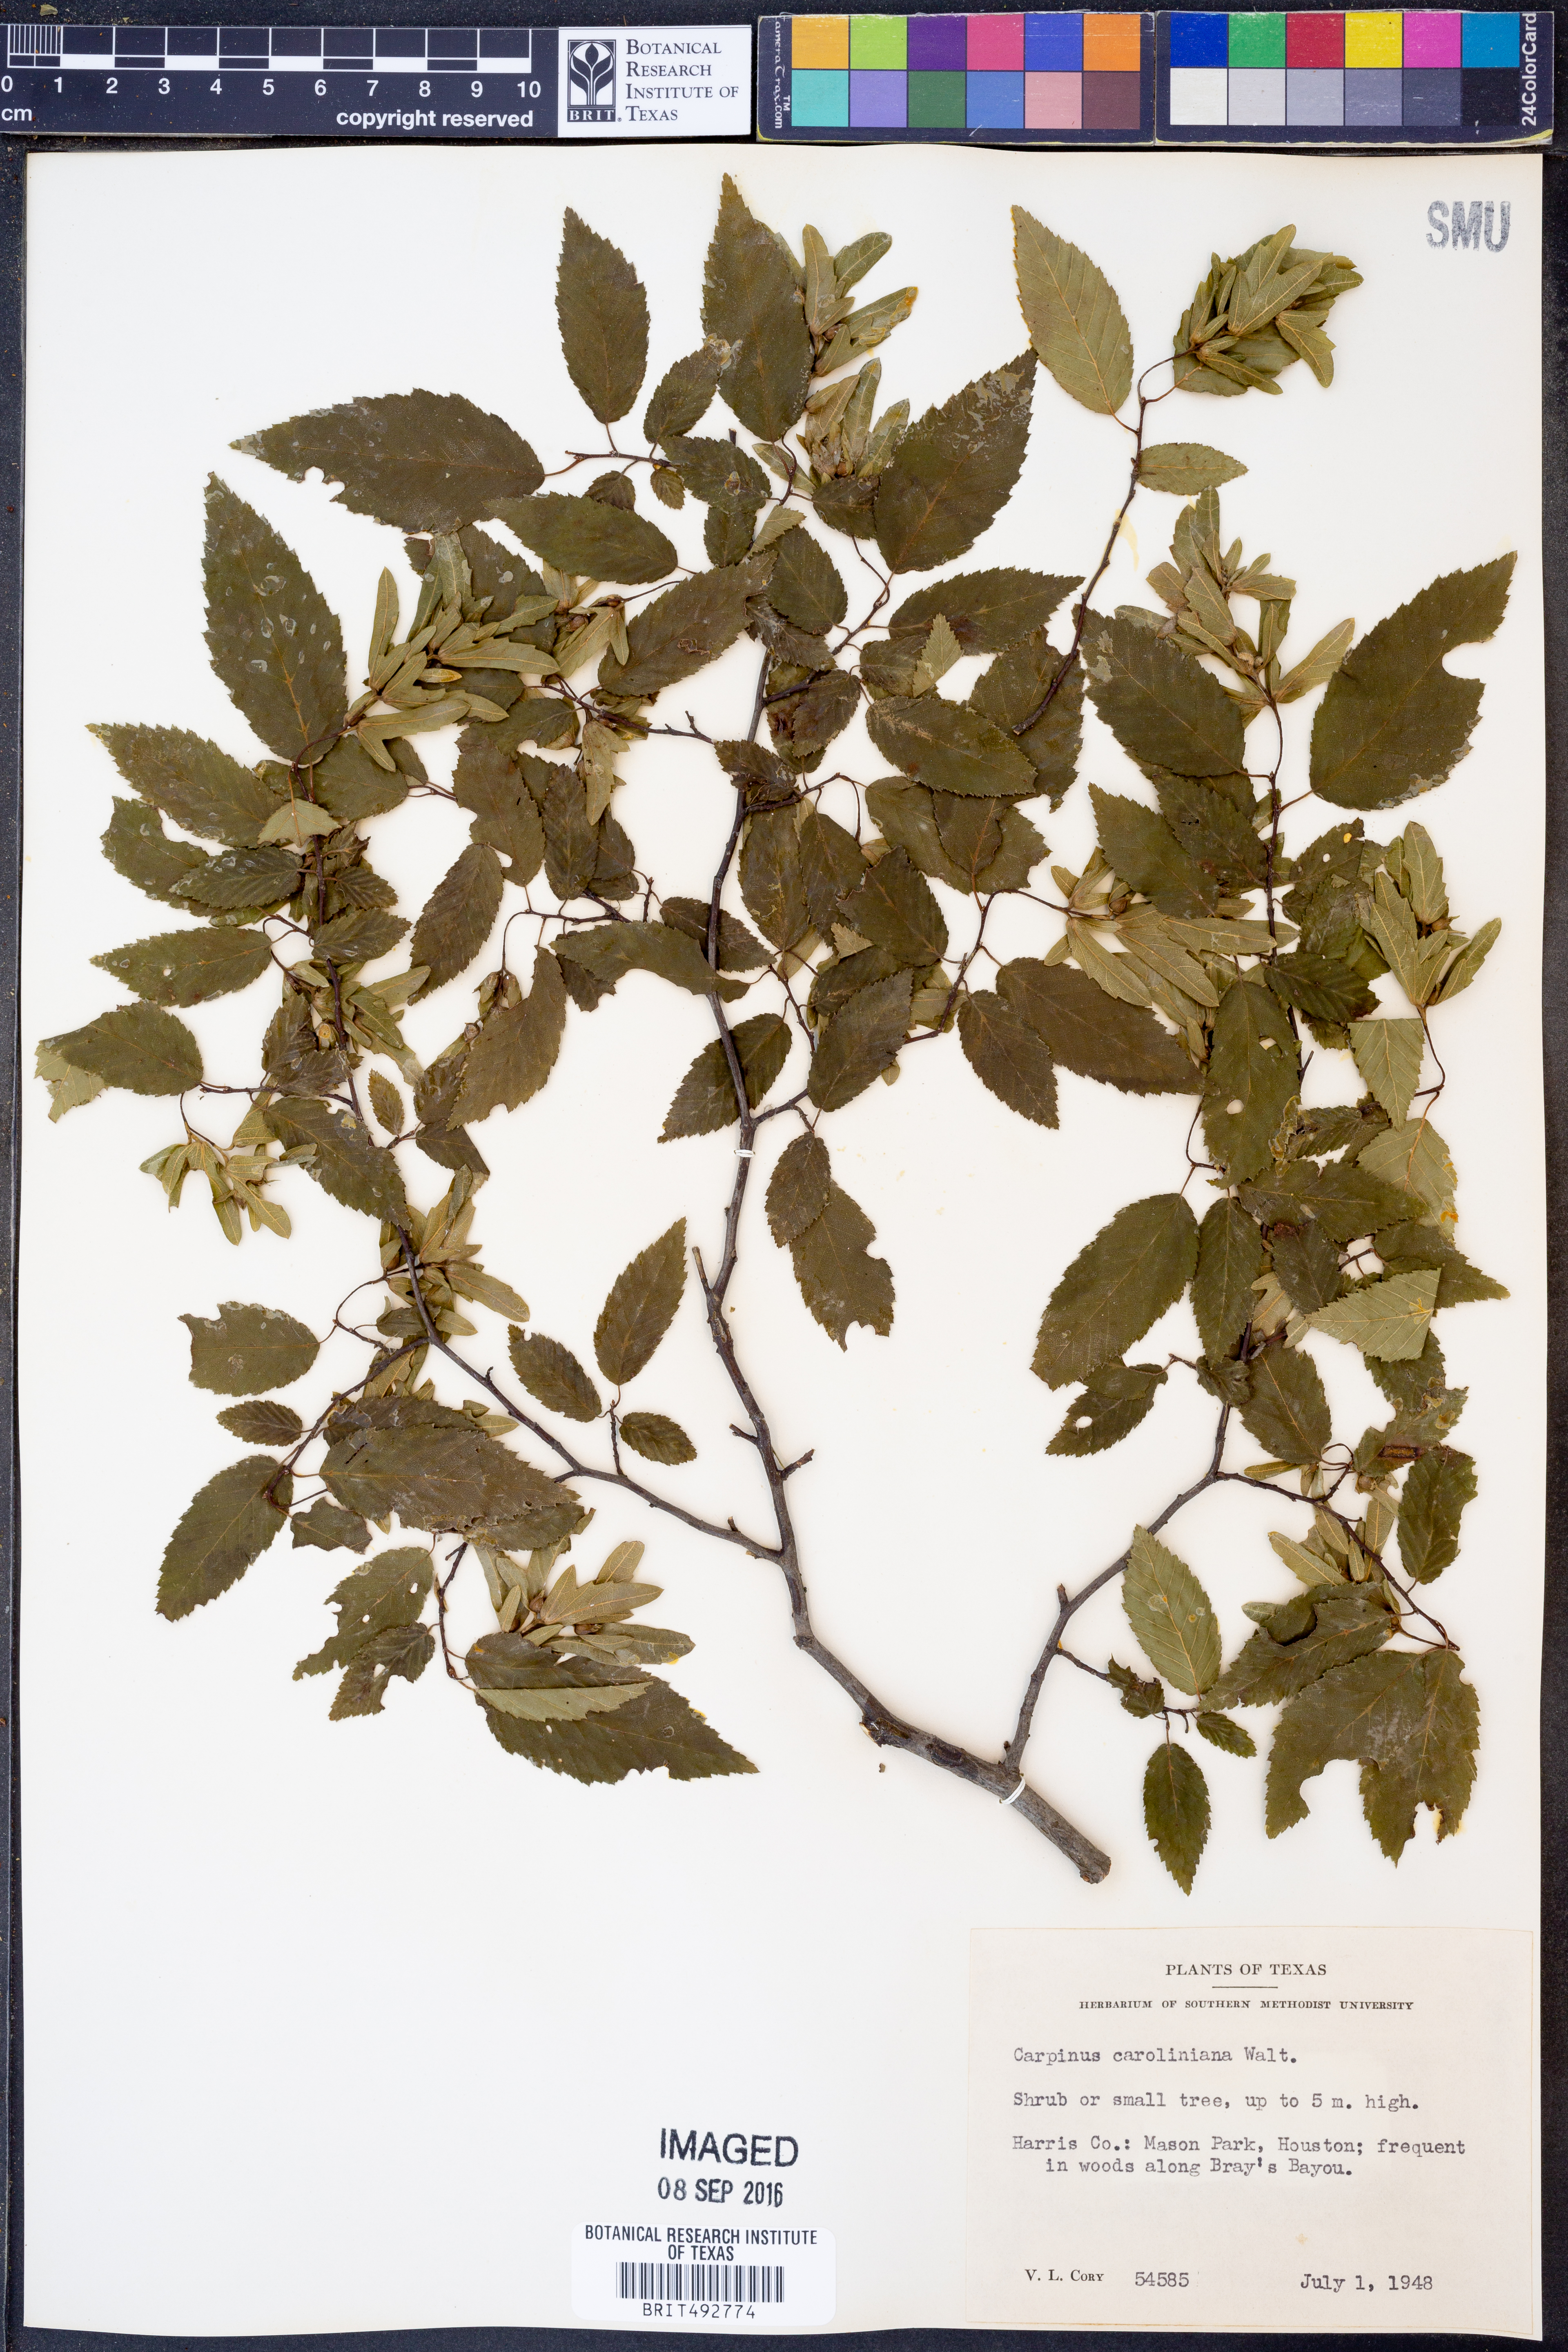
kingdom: Plantae
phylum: Tracheophyta
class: Magnoliopsida
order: Fagales
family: Betulaceae
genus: Carpinus
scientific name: Carpinus caroliniana
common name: American hornbeam
